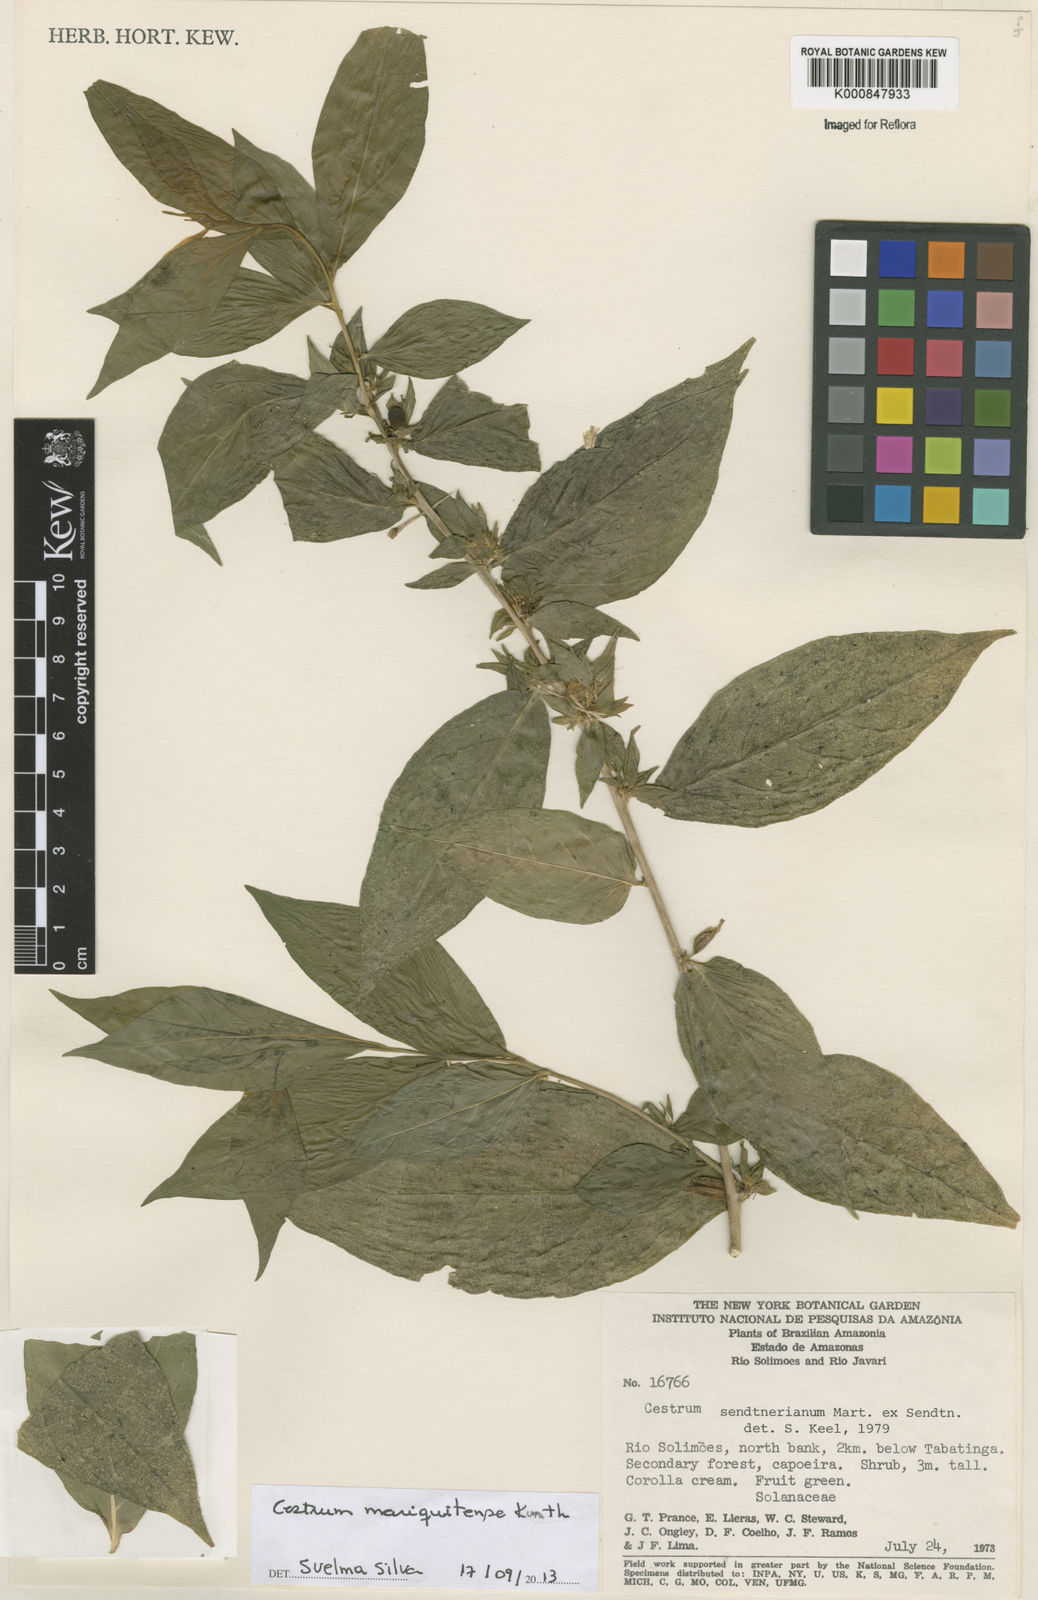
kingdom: Plantae
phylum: Tracheophyta
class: Magnoliopsida
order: Solanales
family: Solanaceae
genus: Cestrum
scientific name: Cestrum mariquitense
